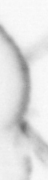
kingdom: Animalia
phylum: Annelida
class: Polychaeta
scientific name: Polychaeta
